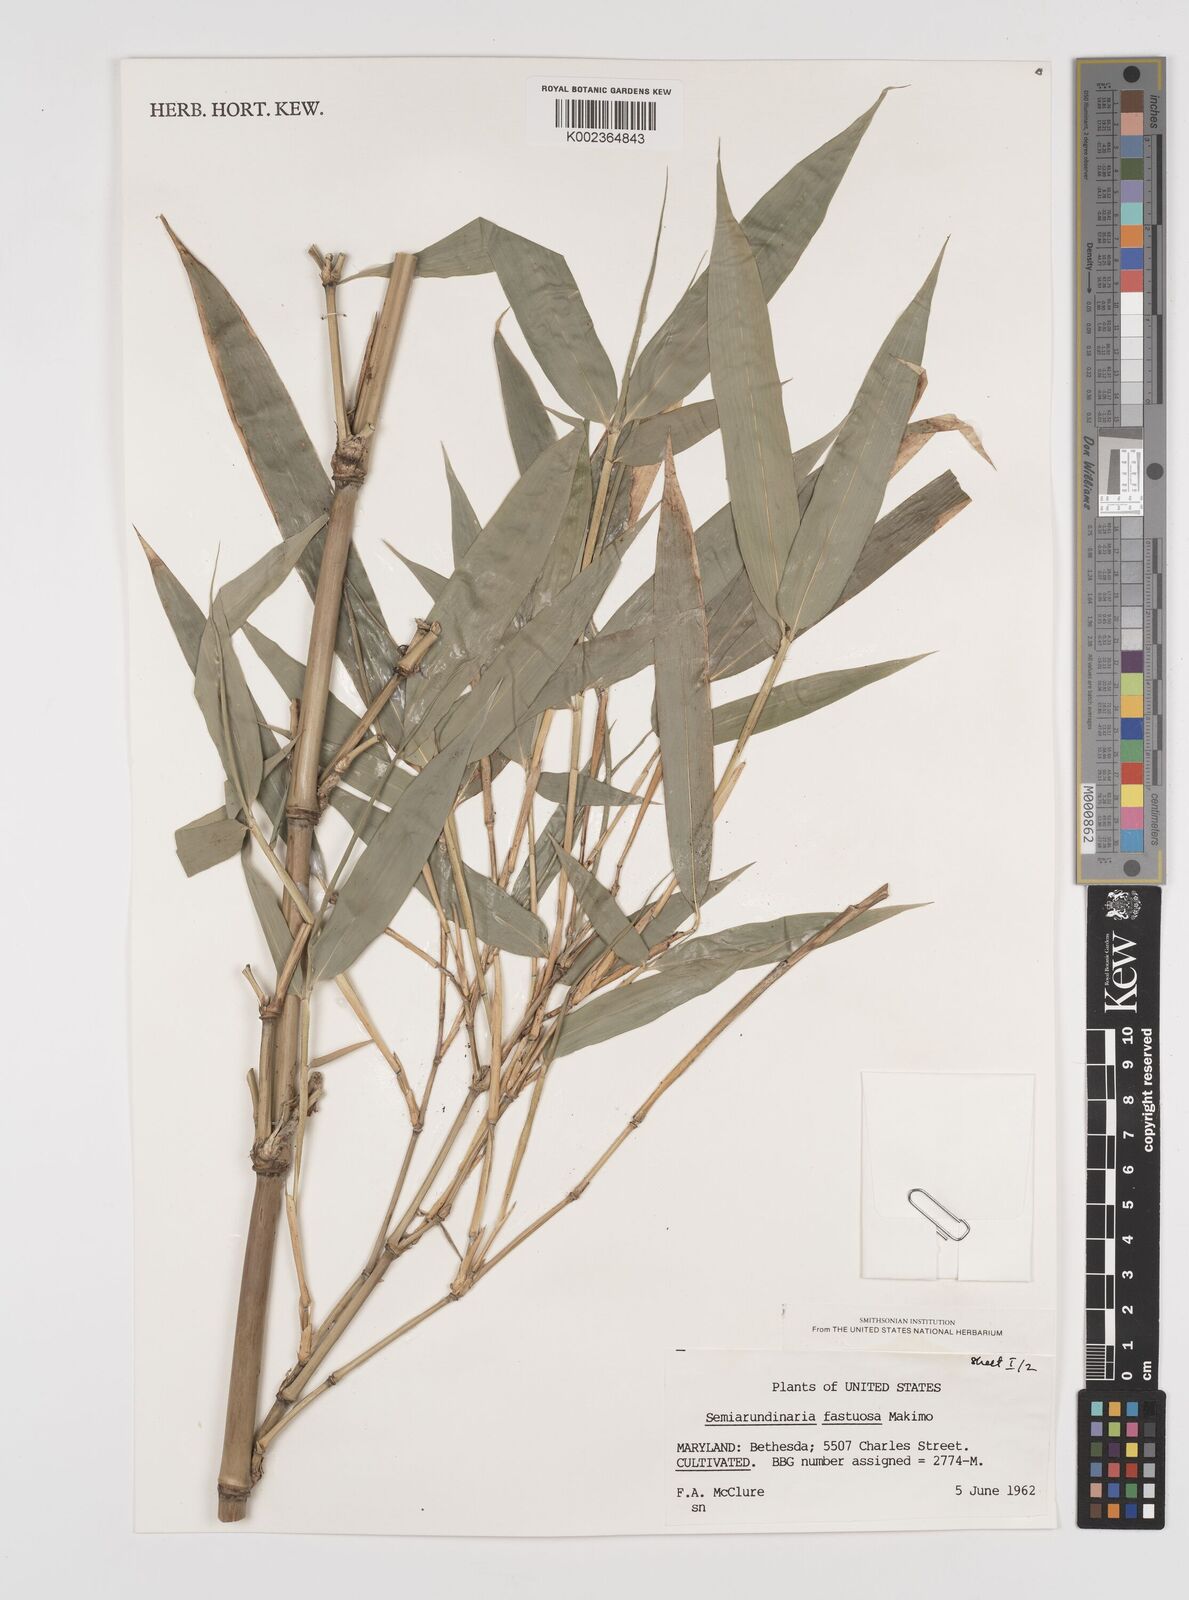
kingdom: Plantae
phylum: Tracheophyta
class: Liliopsida
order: Poales
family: Poaceae
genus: Semiarundinaria
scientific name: Semiarundinaria
